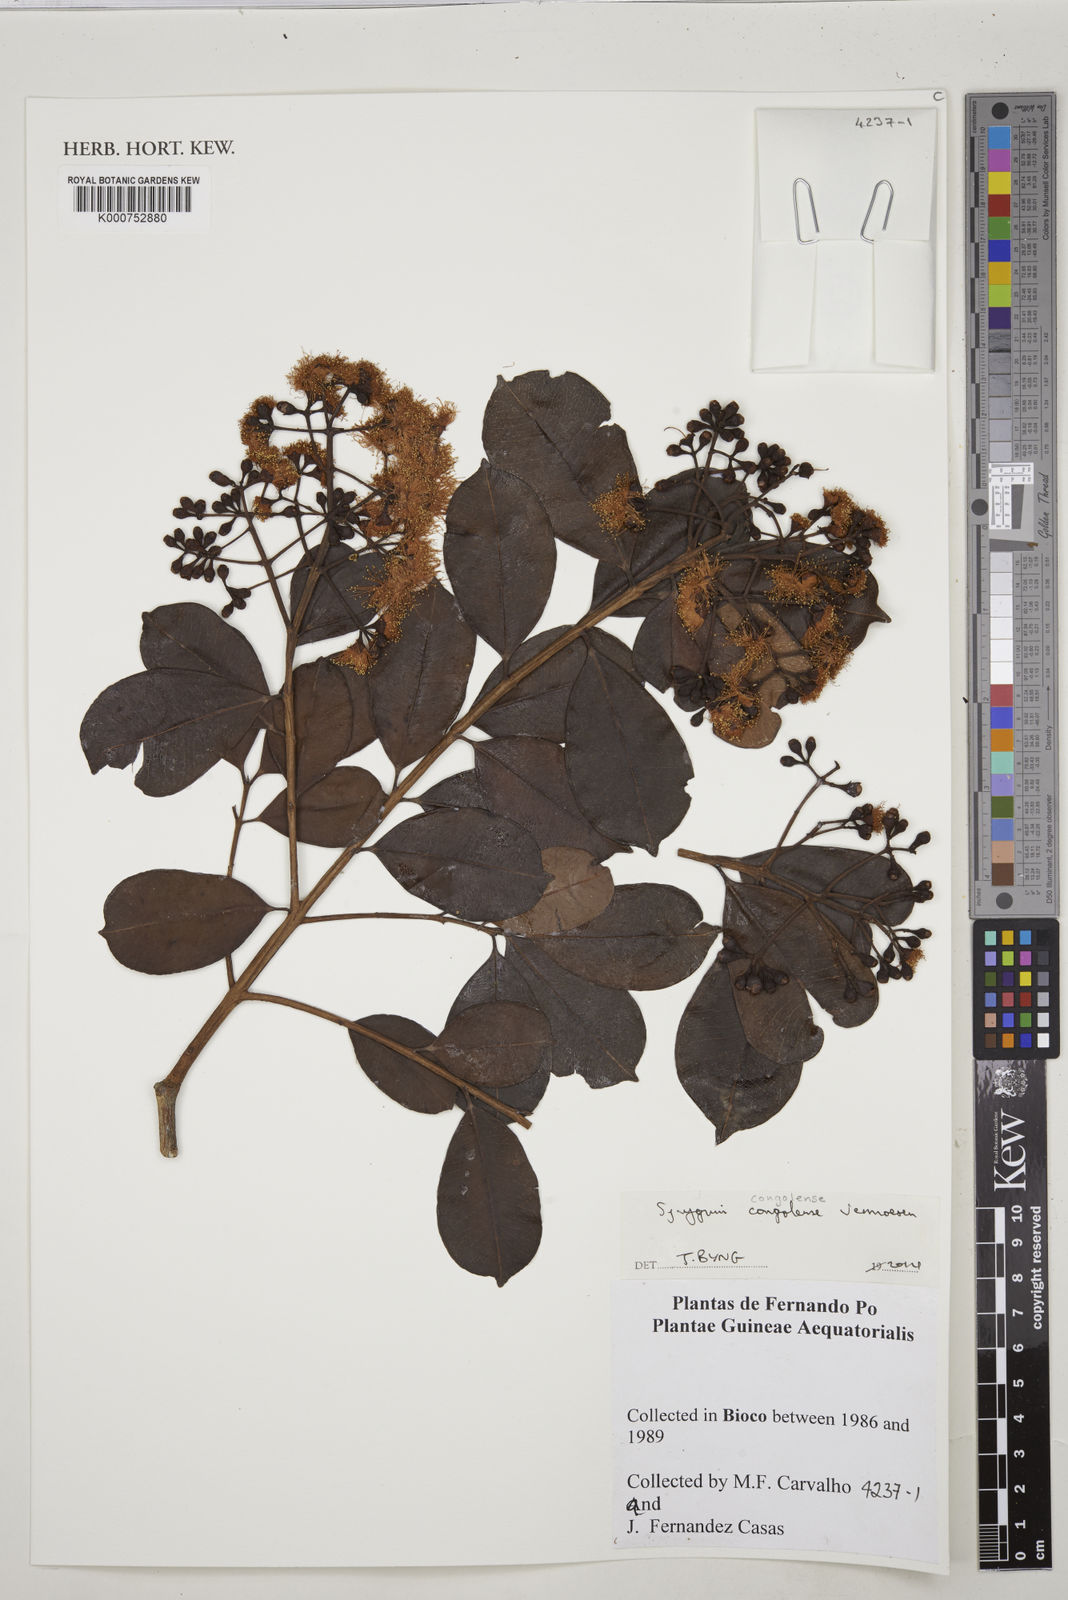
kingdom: Plantae
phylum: Tracheophyta
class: Magnoliopsida
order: Myrtales
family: Myrtaceae
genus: Syzygium
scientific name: Syzygium congolense
